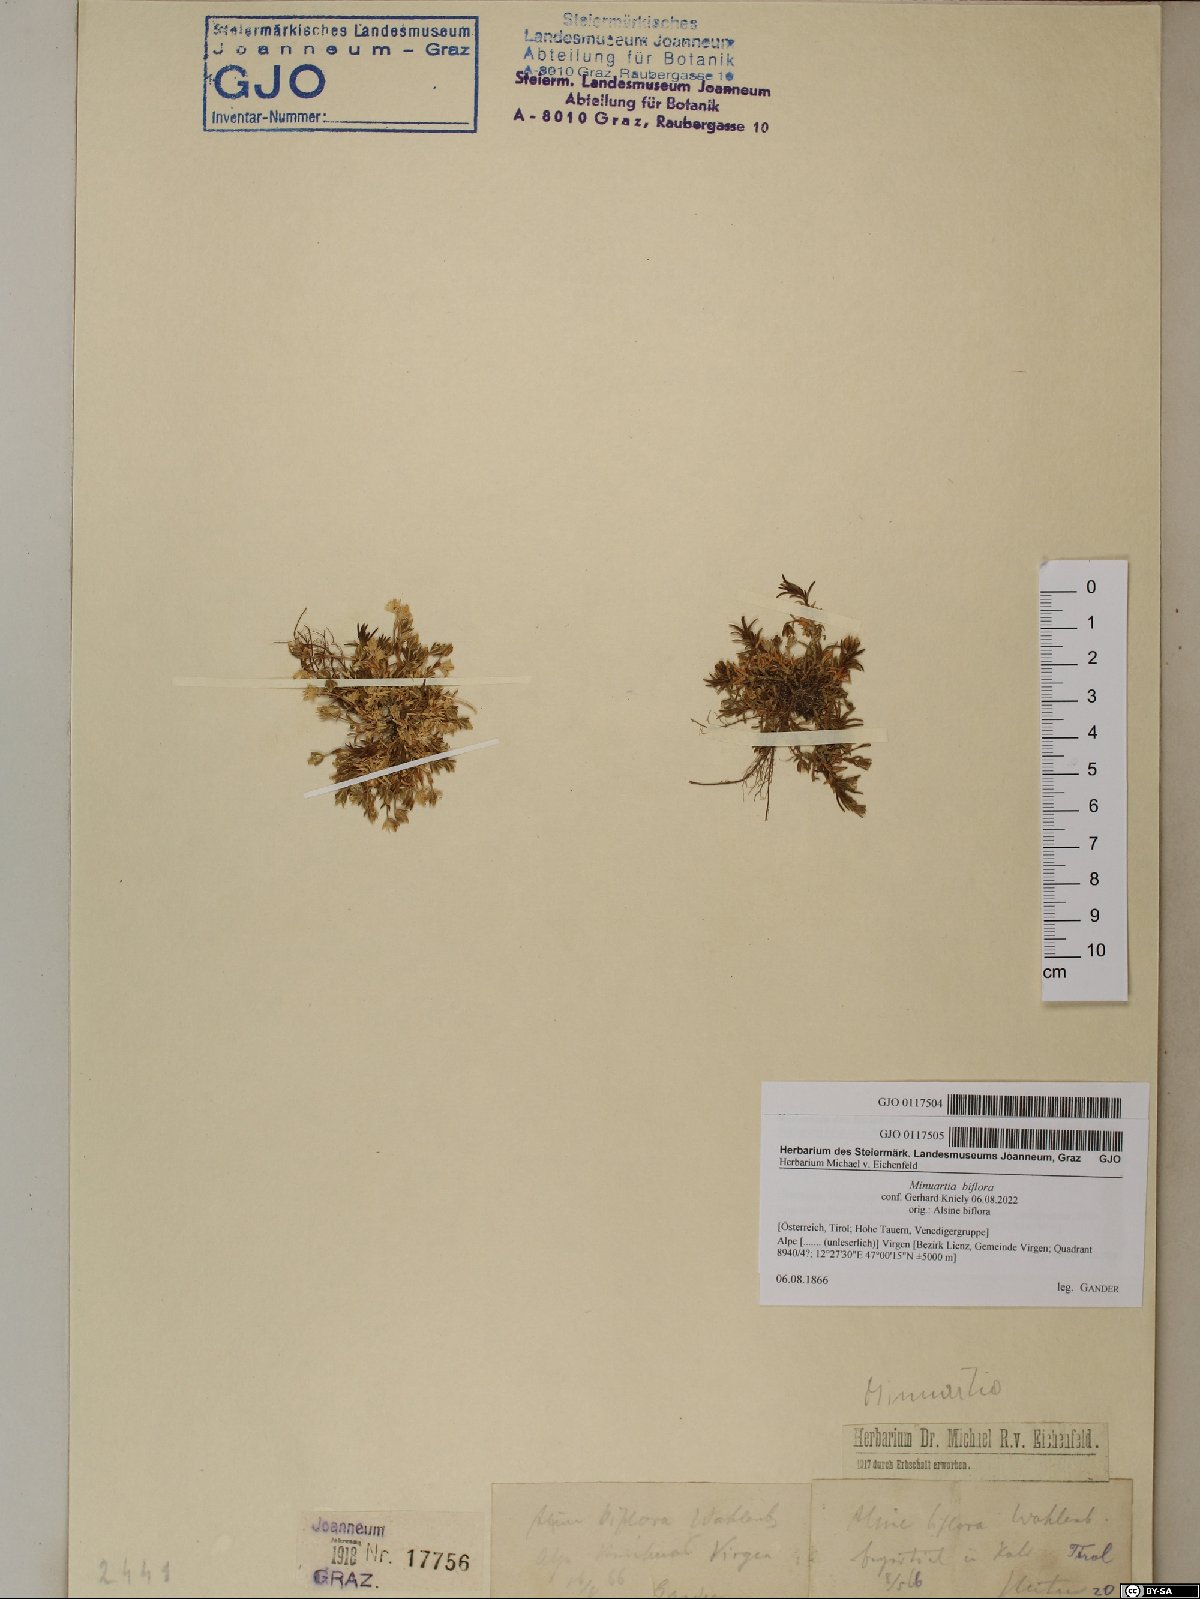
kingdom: Plantae
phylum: Tracheophyta
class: Magnoliopsida
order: Caryophyllales
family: Caryophyllaceae
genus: Cherleria
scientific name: Cherleria biflora
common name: Mountain sandwort
